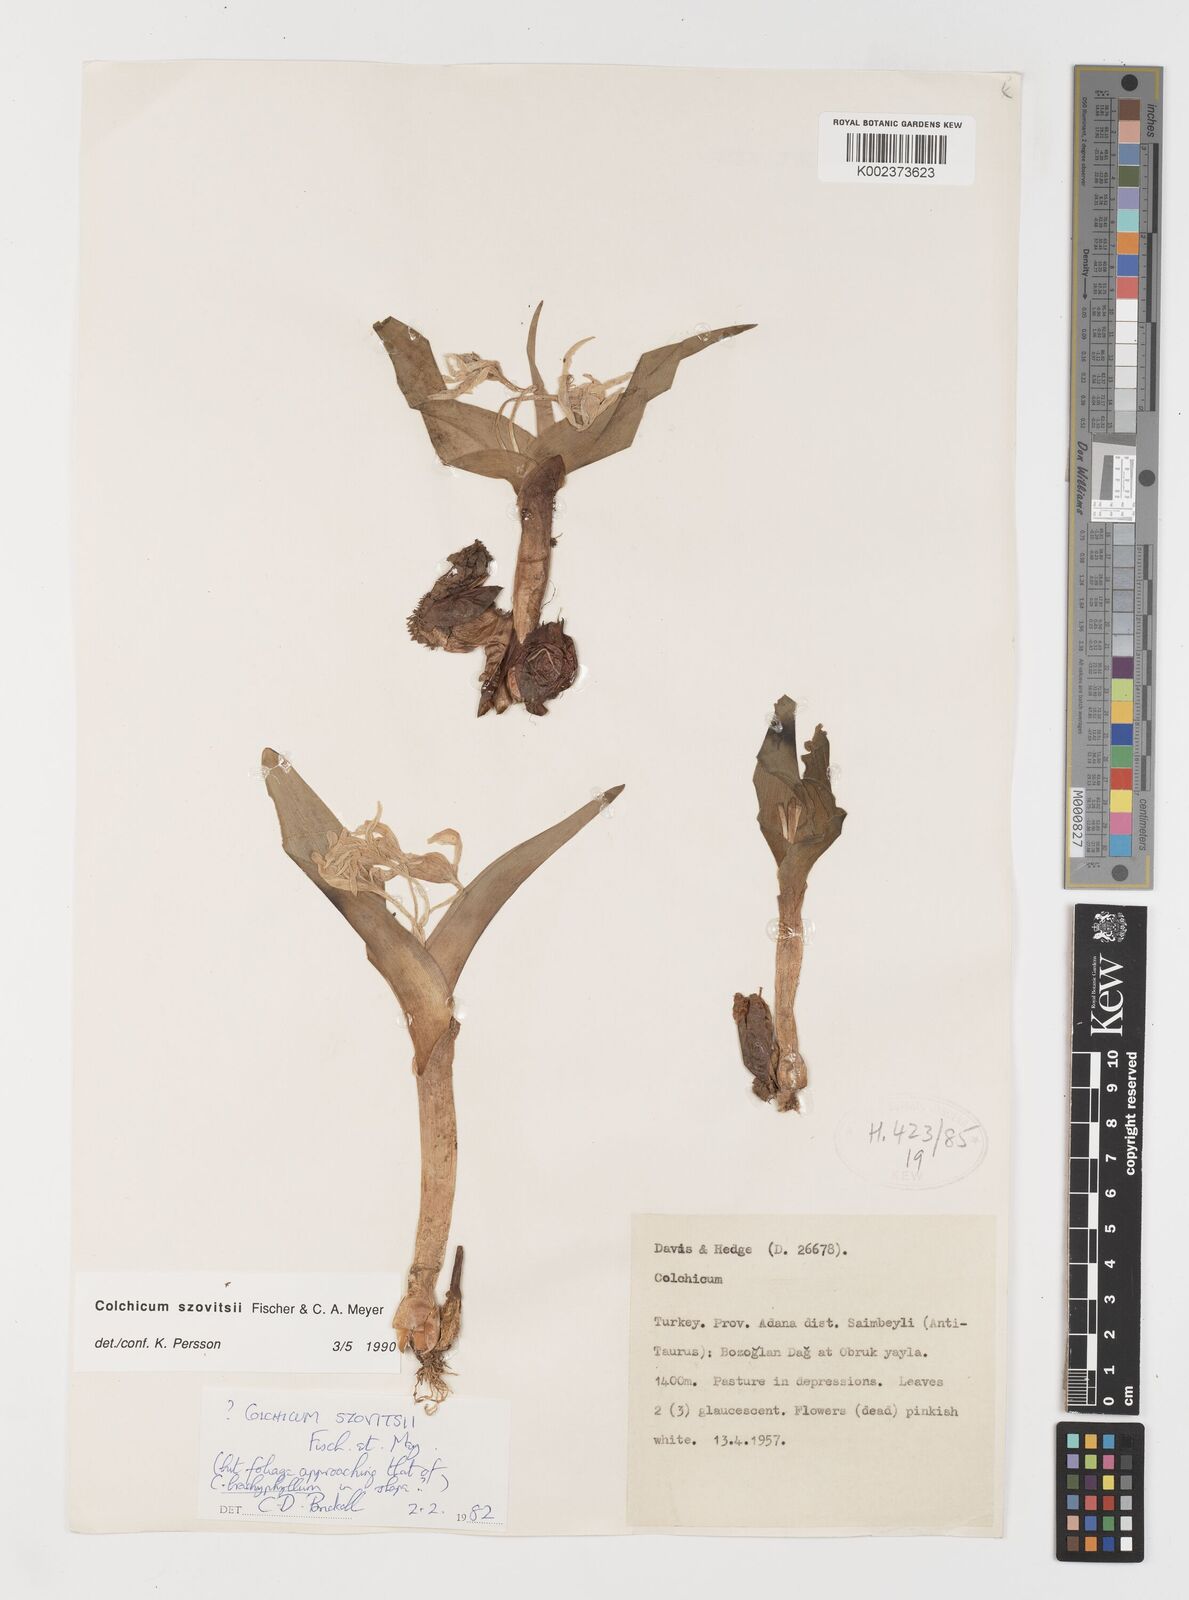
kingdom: Plantae
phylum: Tracheophyta
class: Liliopsida
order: Liliales
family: Colchicaceae
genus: Colchicum
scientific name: Colchicum szovitsii
